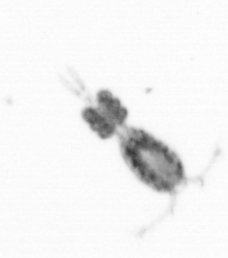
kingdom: Animalia
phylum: Arthropoda
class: Copepoda
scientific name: Copepoda
